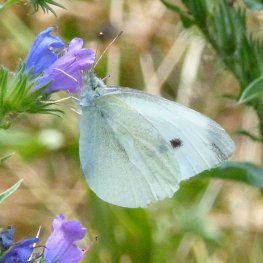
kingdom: Animalia
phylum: Arthropoda
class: Insecta
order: Lepidoptera
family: Pieridae
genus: Pieris
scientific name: Pieris rapae
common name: Cabbage White
